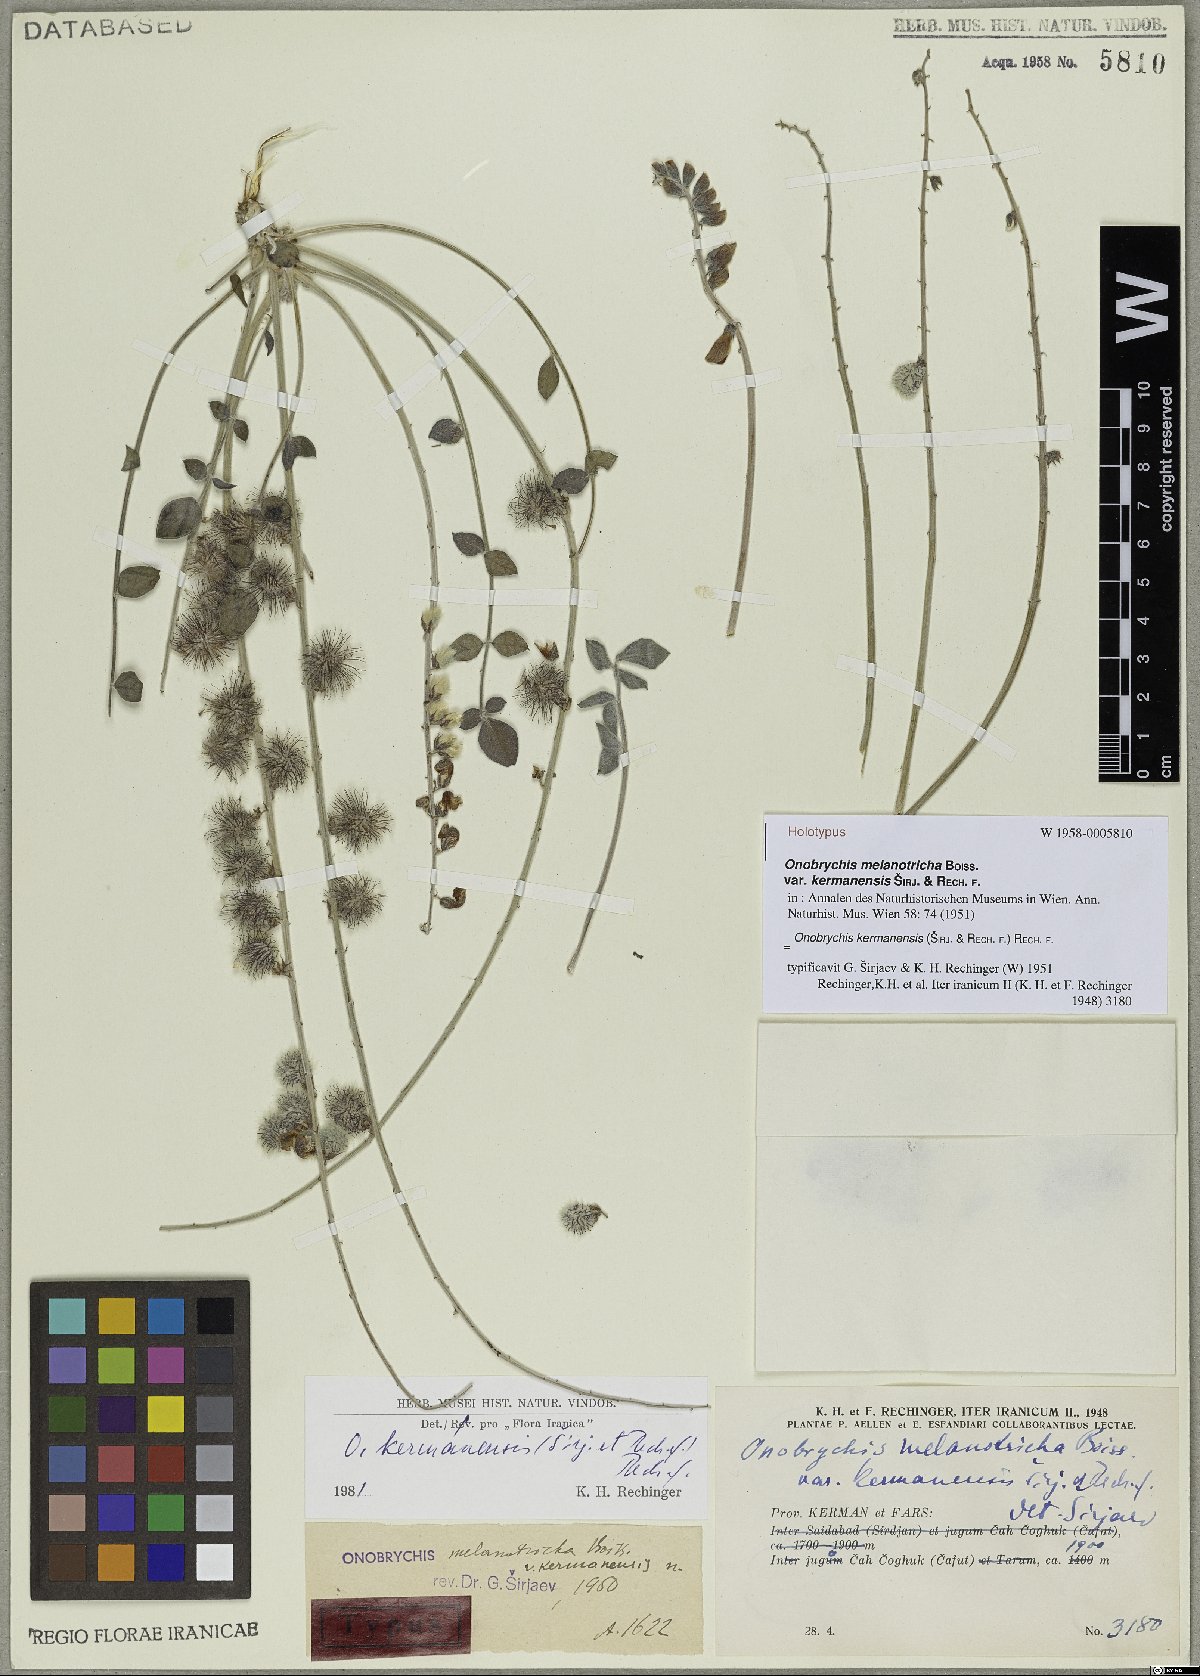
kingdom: Plantae
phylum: Tracheophyta
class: Magnoliopsida
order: Fabales
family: Fabaceae
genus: Onobrychis
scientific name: Onobrychis kermanensis
